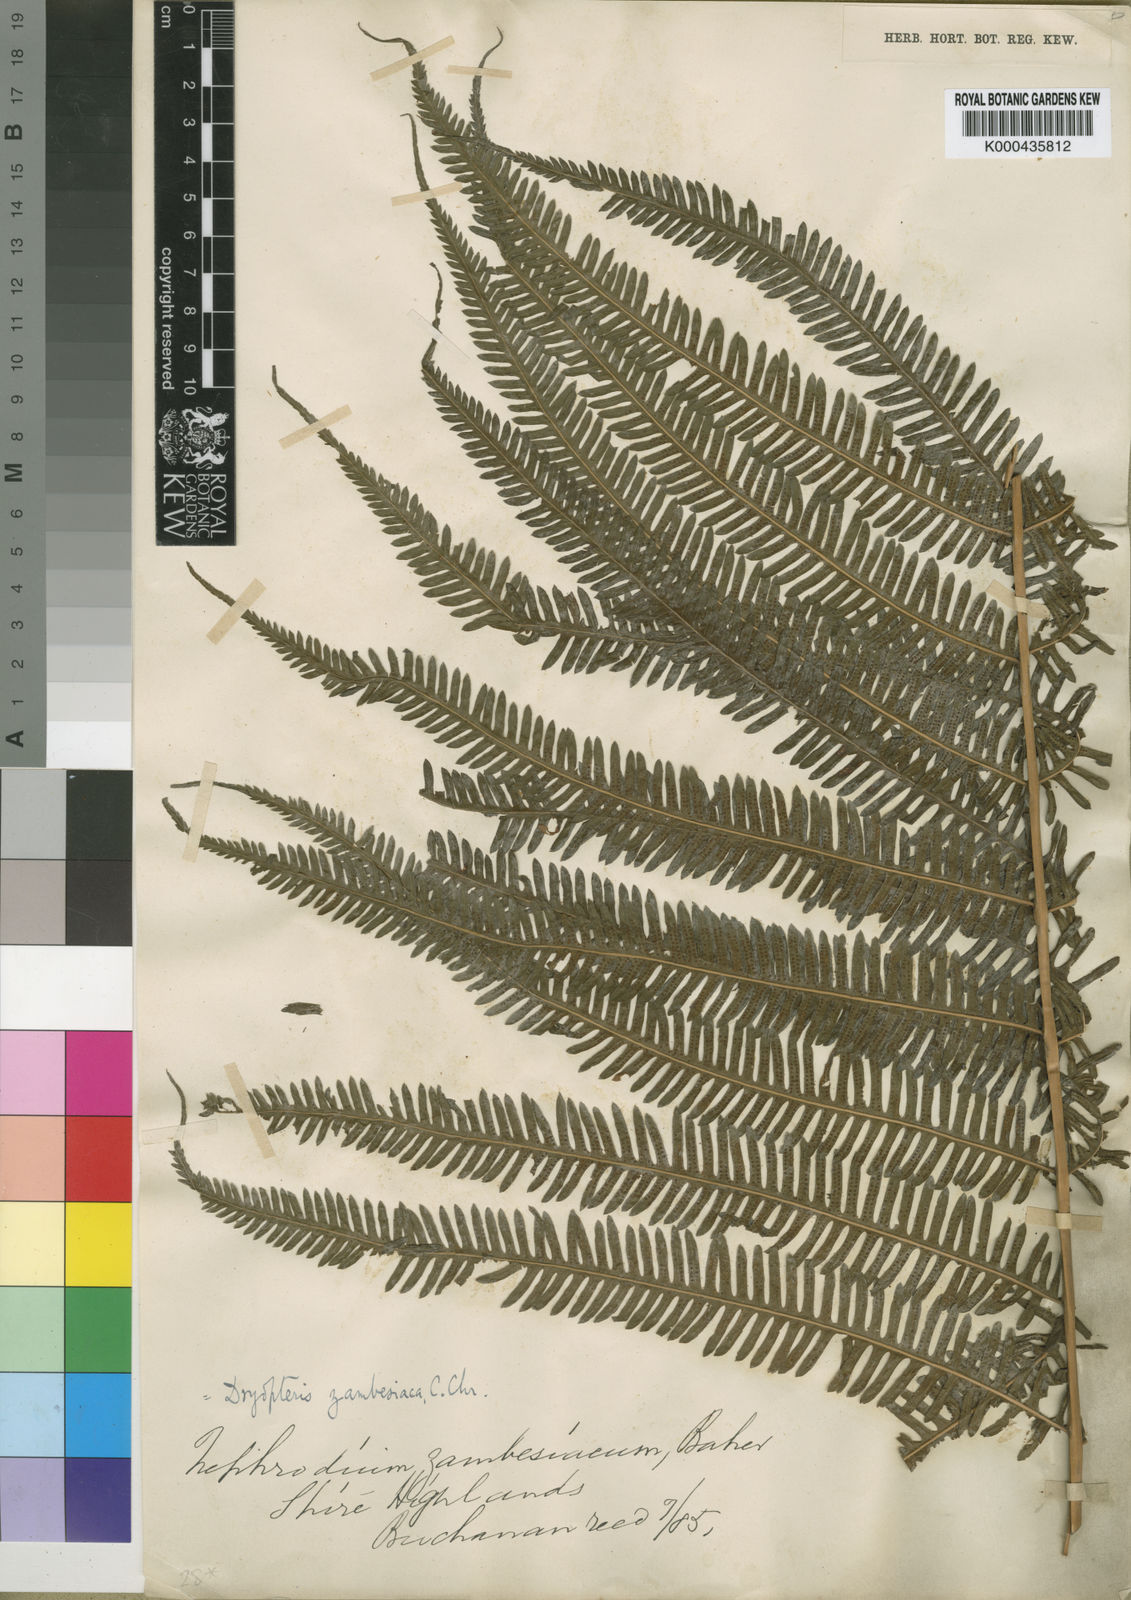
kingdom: Plantae
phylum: Tracheophyta
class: Polypodiopsida
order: Polypodiales
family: Thelypteridaceae
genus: Pseudocyclosorus
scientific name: Pseudocyclosorus johannae
